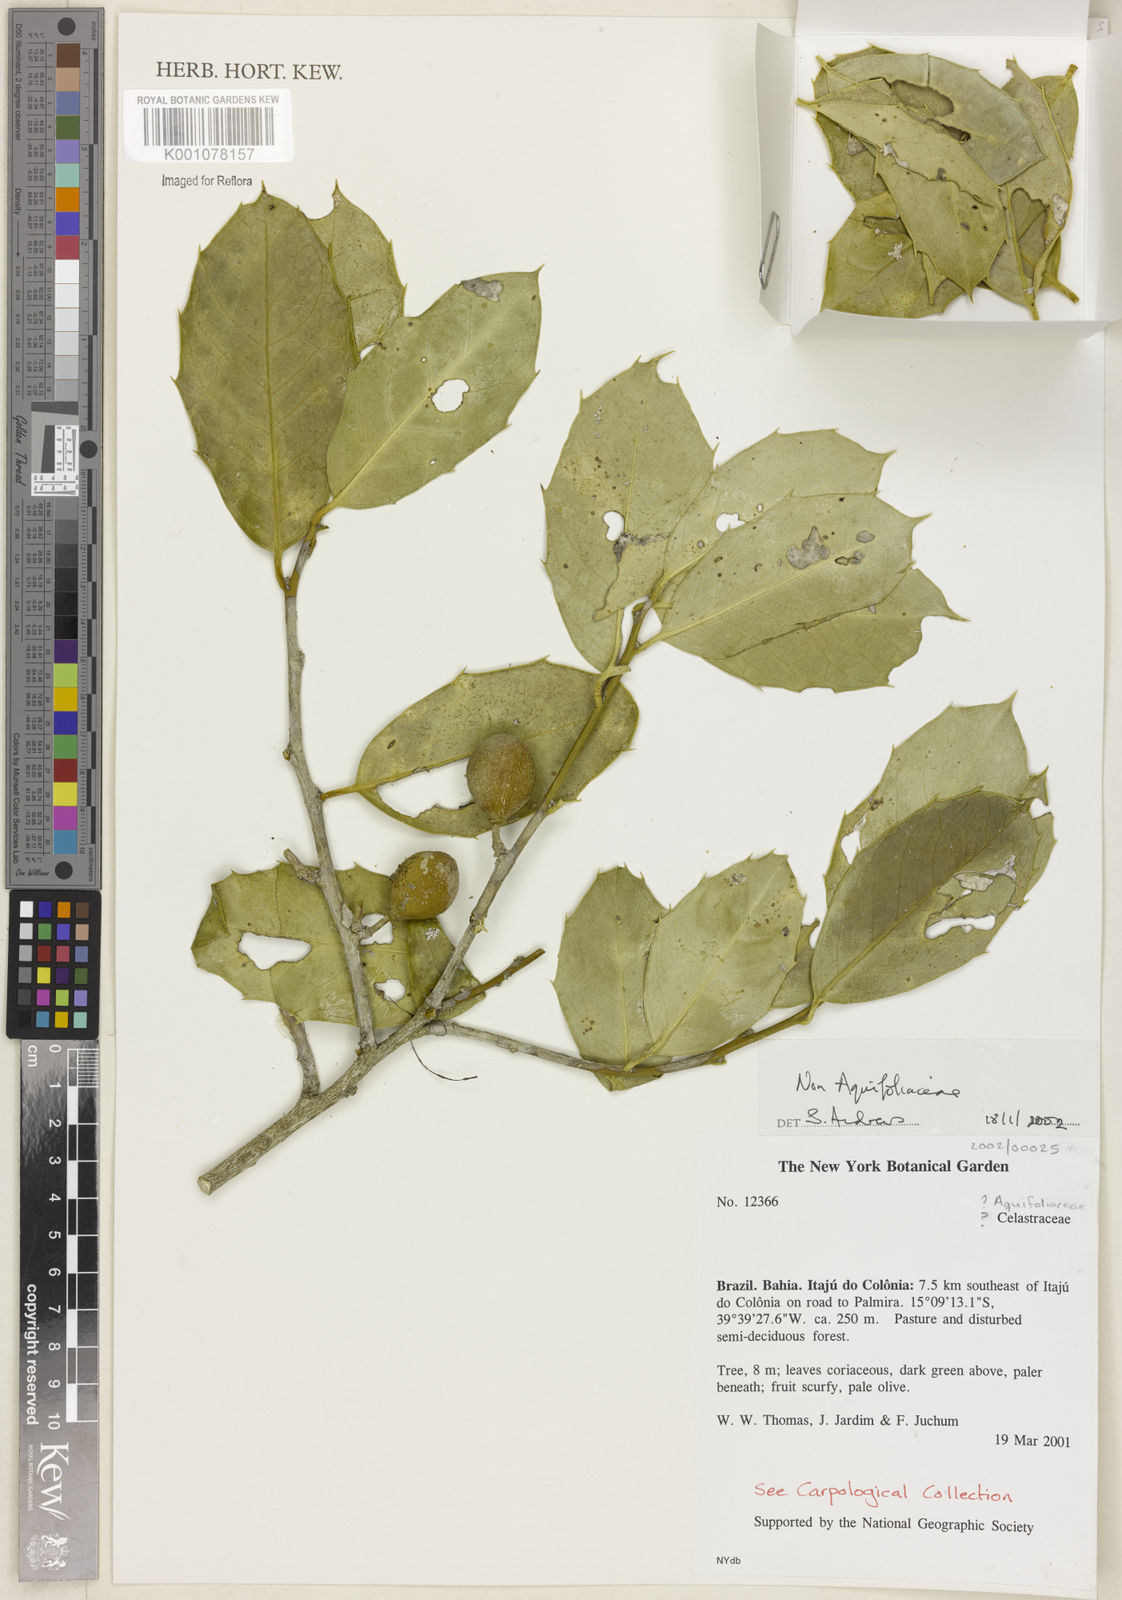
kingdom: Plantae
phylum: Tracheophyta
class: Magnoliopsida
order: Celastrales
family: Celastraceae
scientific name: Celastraceae
